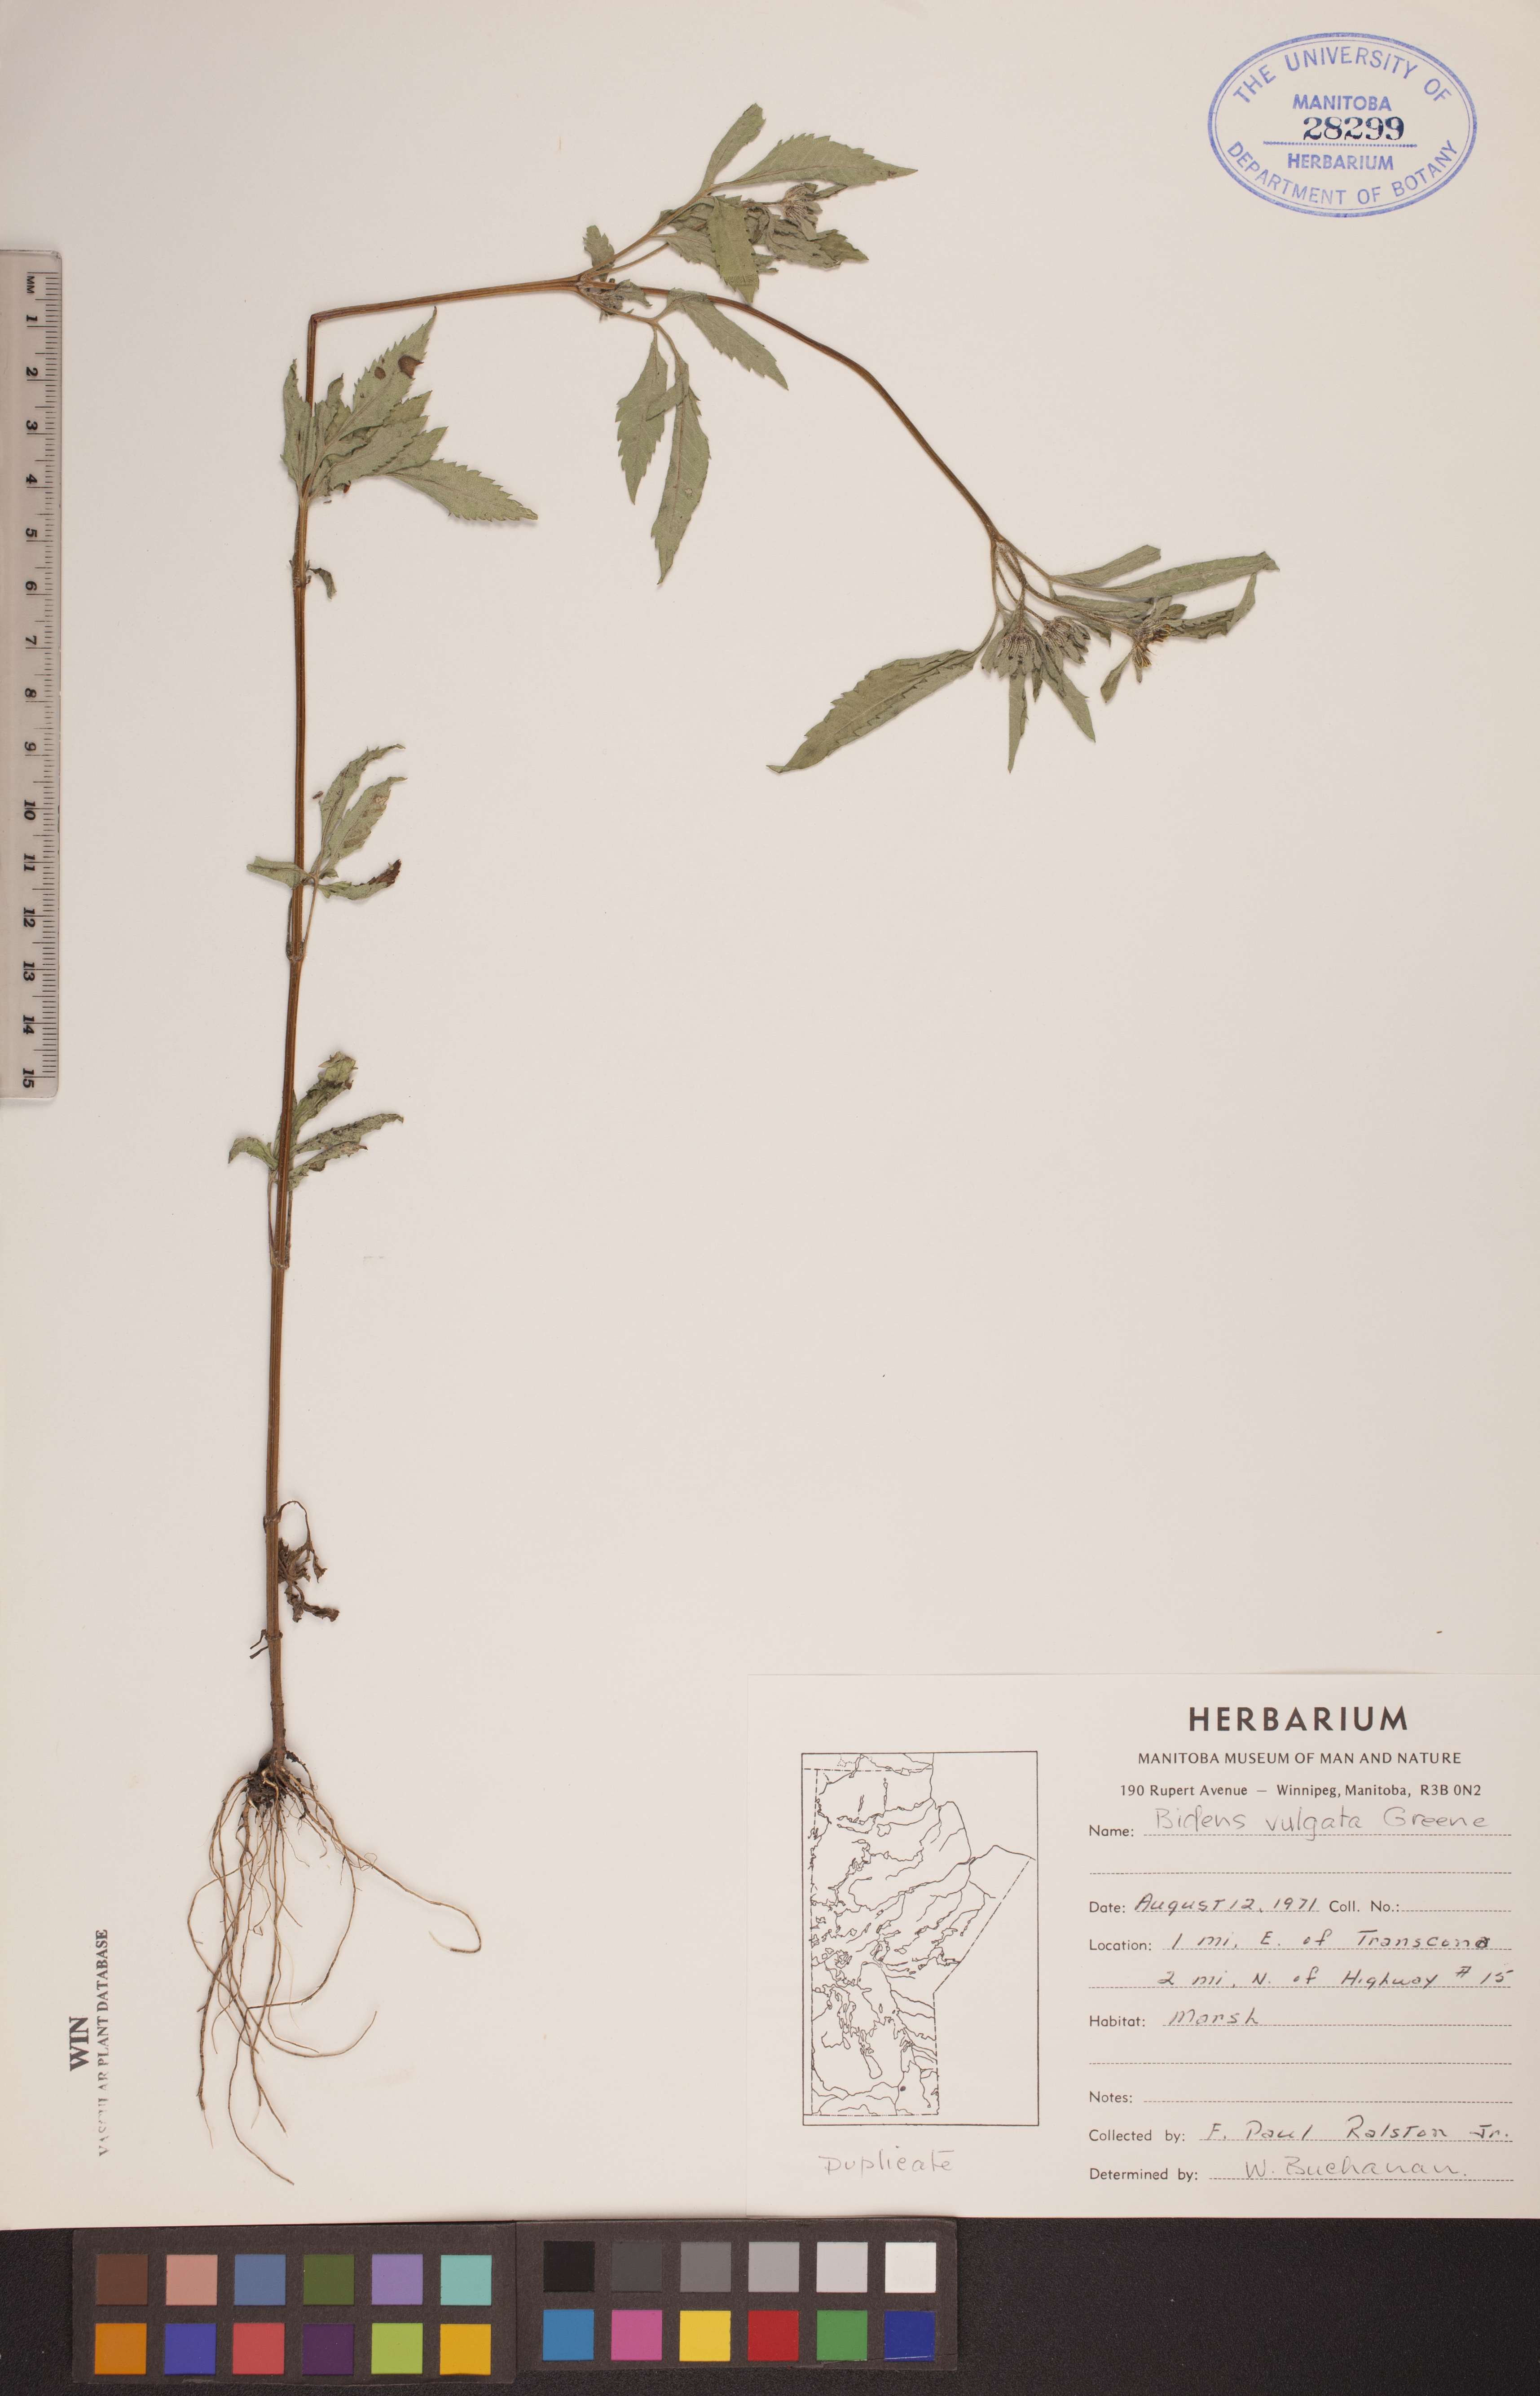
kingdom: Plantae
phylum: Tracheophyta
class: Magnoliopsida
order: Asterales
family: Asteraceae
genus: Bidens
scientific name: Bidens vulgata
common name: Tall beggarticks
